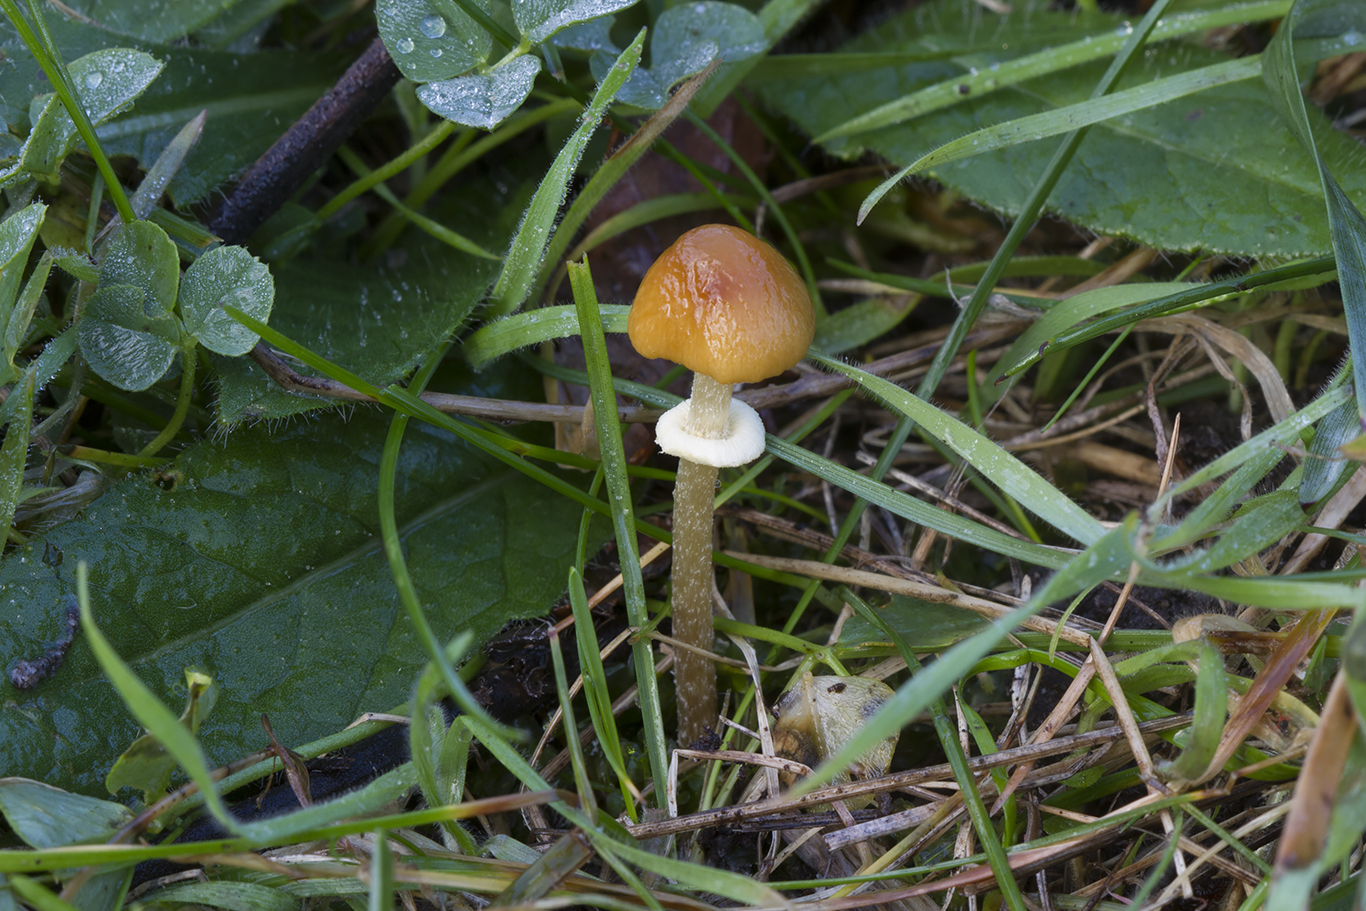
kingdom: Fungi
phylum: Basidiomycota
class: Agaricomycetes
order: Agaricales
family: Bolbitiaceae
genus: Pholiotina
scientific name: Pholiotina teneroides
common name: tosporet dansehat
